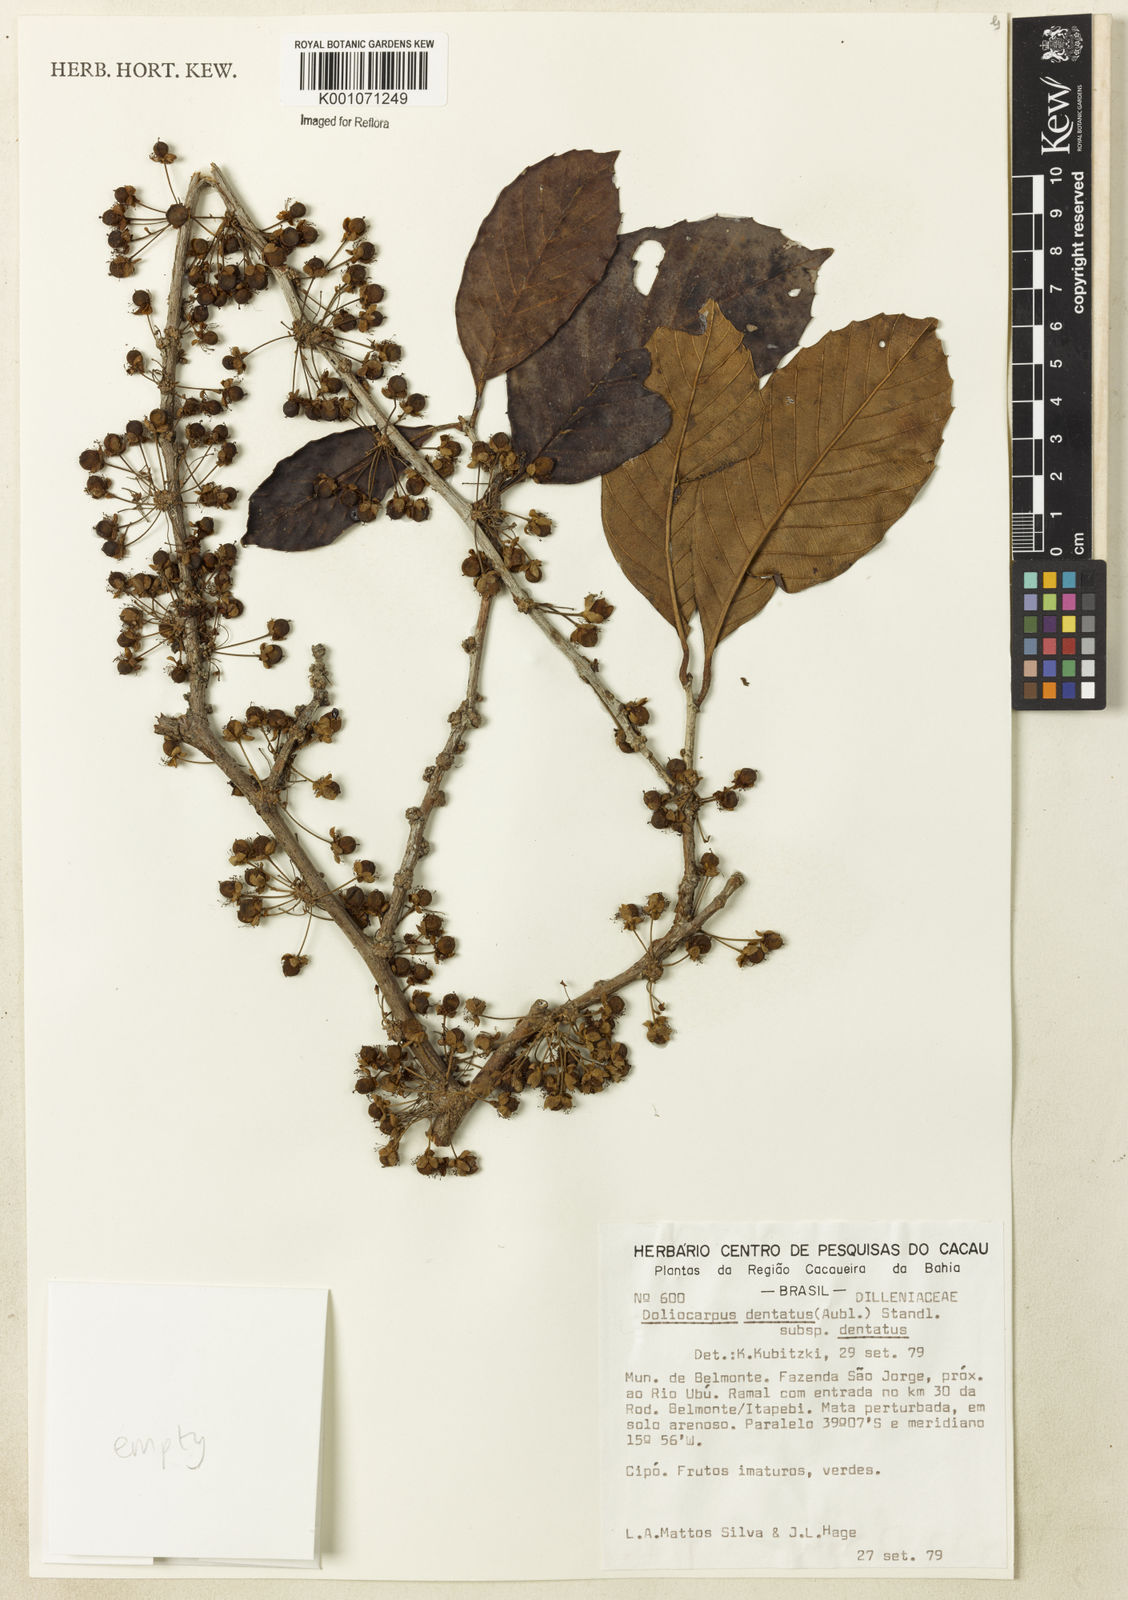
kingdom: Plantae
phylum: Tracheophyta
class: Magnoliopsida
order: Dilleniales
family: Dilleniaceae
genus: Doliocarpus
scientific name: Doliocarpus dentatus
